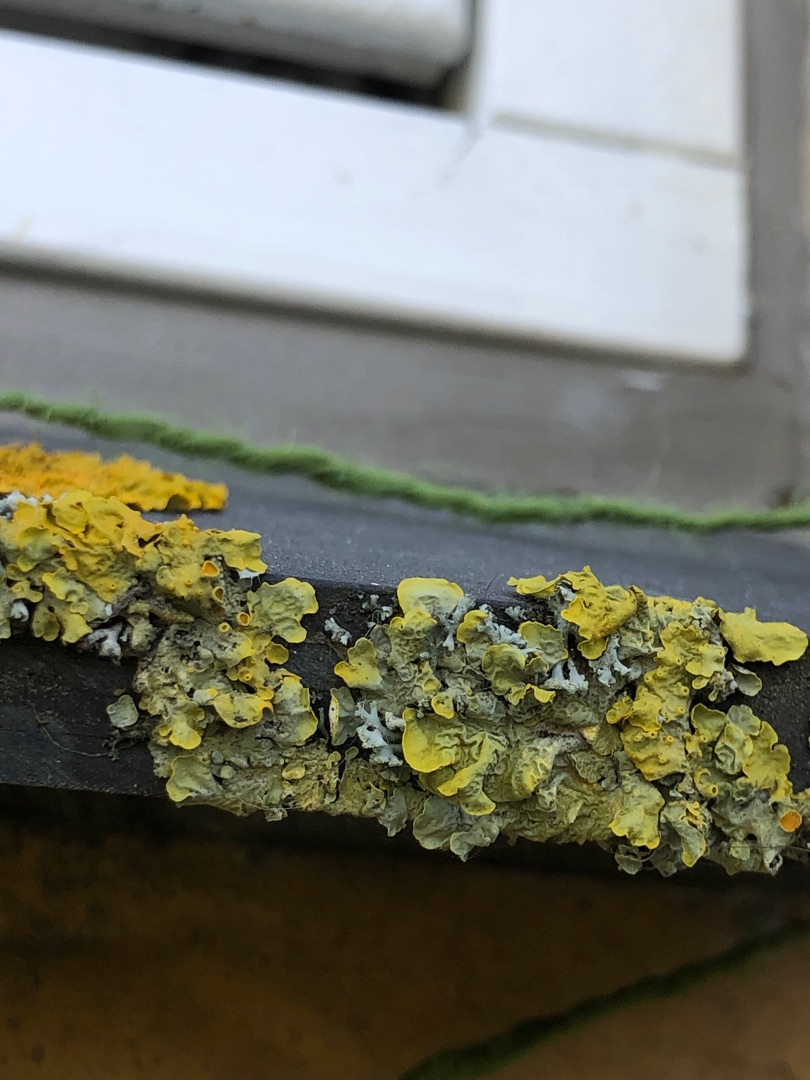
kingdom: Fungi
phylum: Ascomycota
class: Lecanoromycetes
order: Teloschistales
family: Teloschistaceae
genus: Xanthoria
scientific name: Xanthoria parietina
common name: Almindelig væggelav
